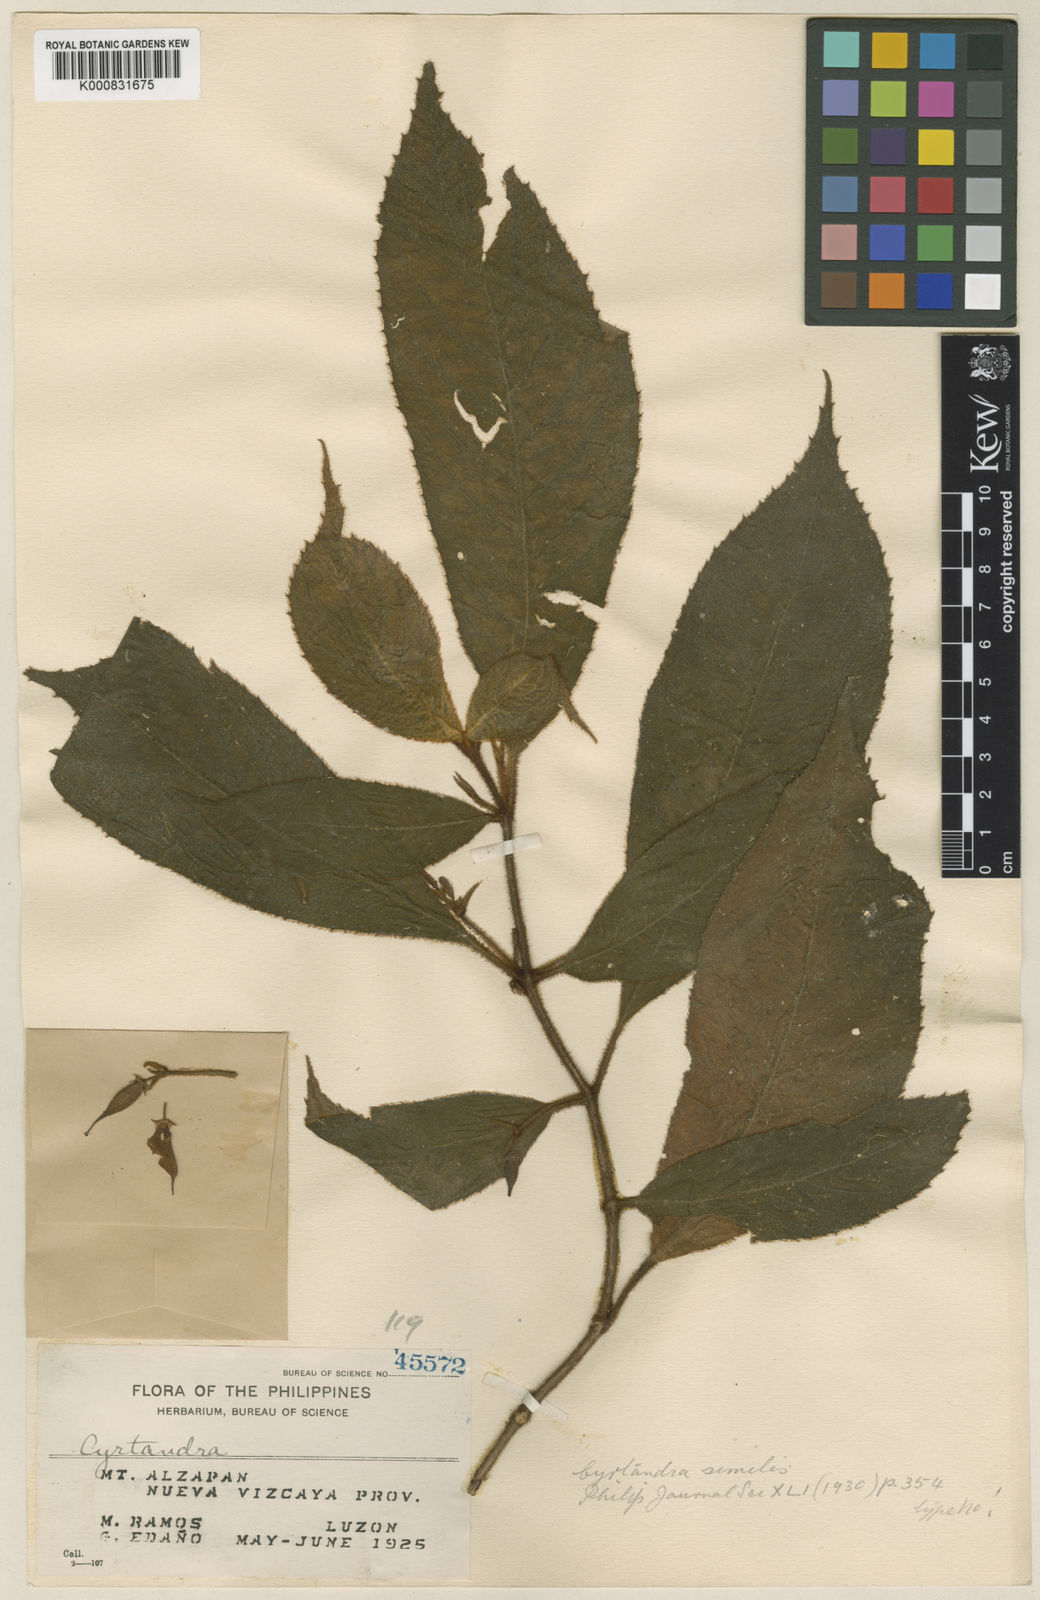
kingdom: Plantae
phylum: Tracheophyta
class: Magnoliopsida
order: Lamiales
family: Gesneriaceae
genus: Cyrtandra
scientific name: Cyrtandra similis
